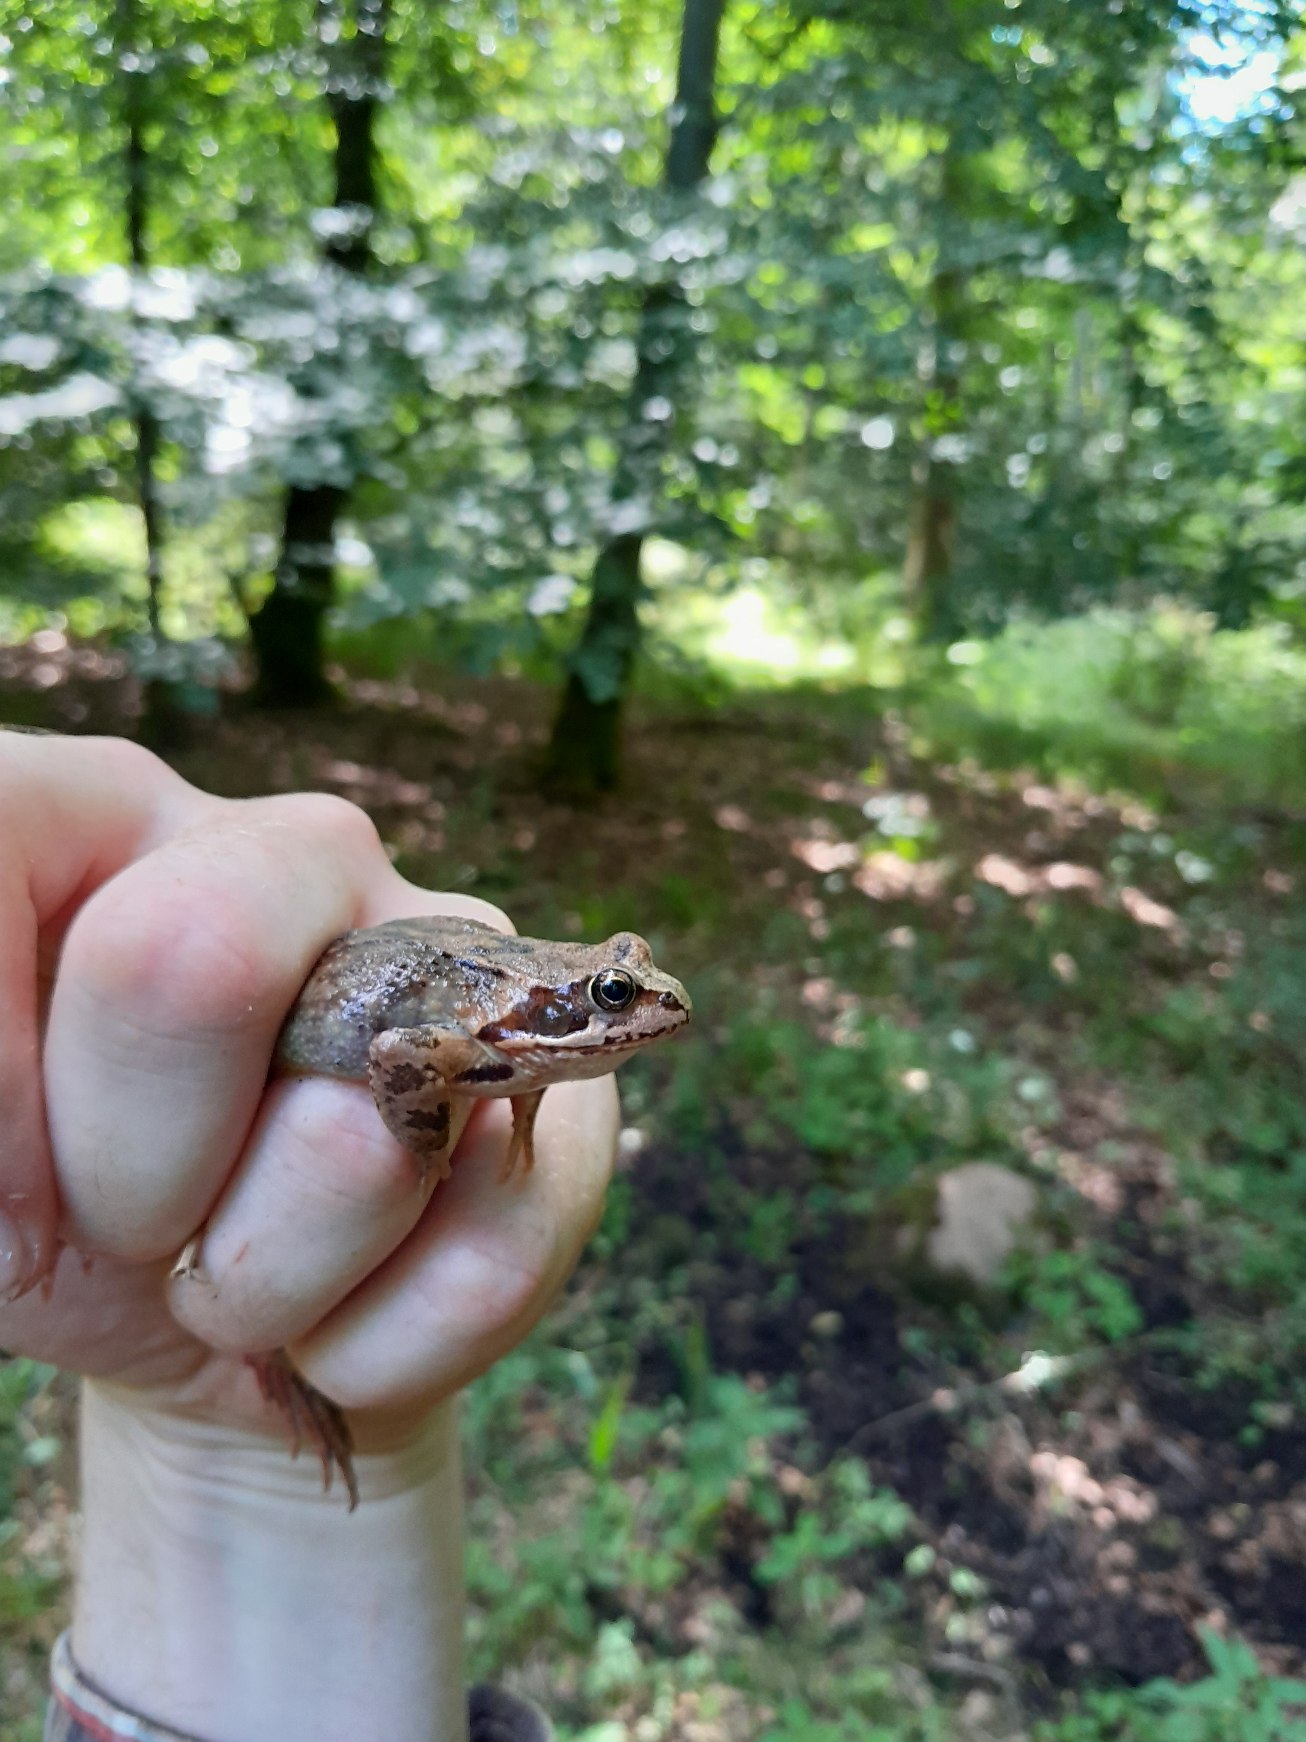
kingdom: Animalia
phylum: Chordata
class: Amphibia
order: Anura
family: Ranidae
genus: Rana
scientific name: Rana temporaria
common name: Butsnudet frø
